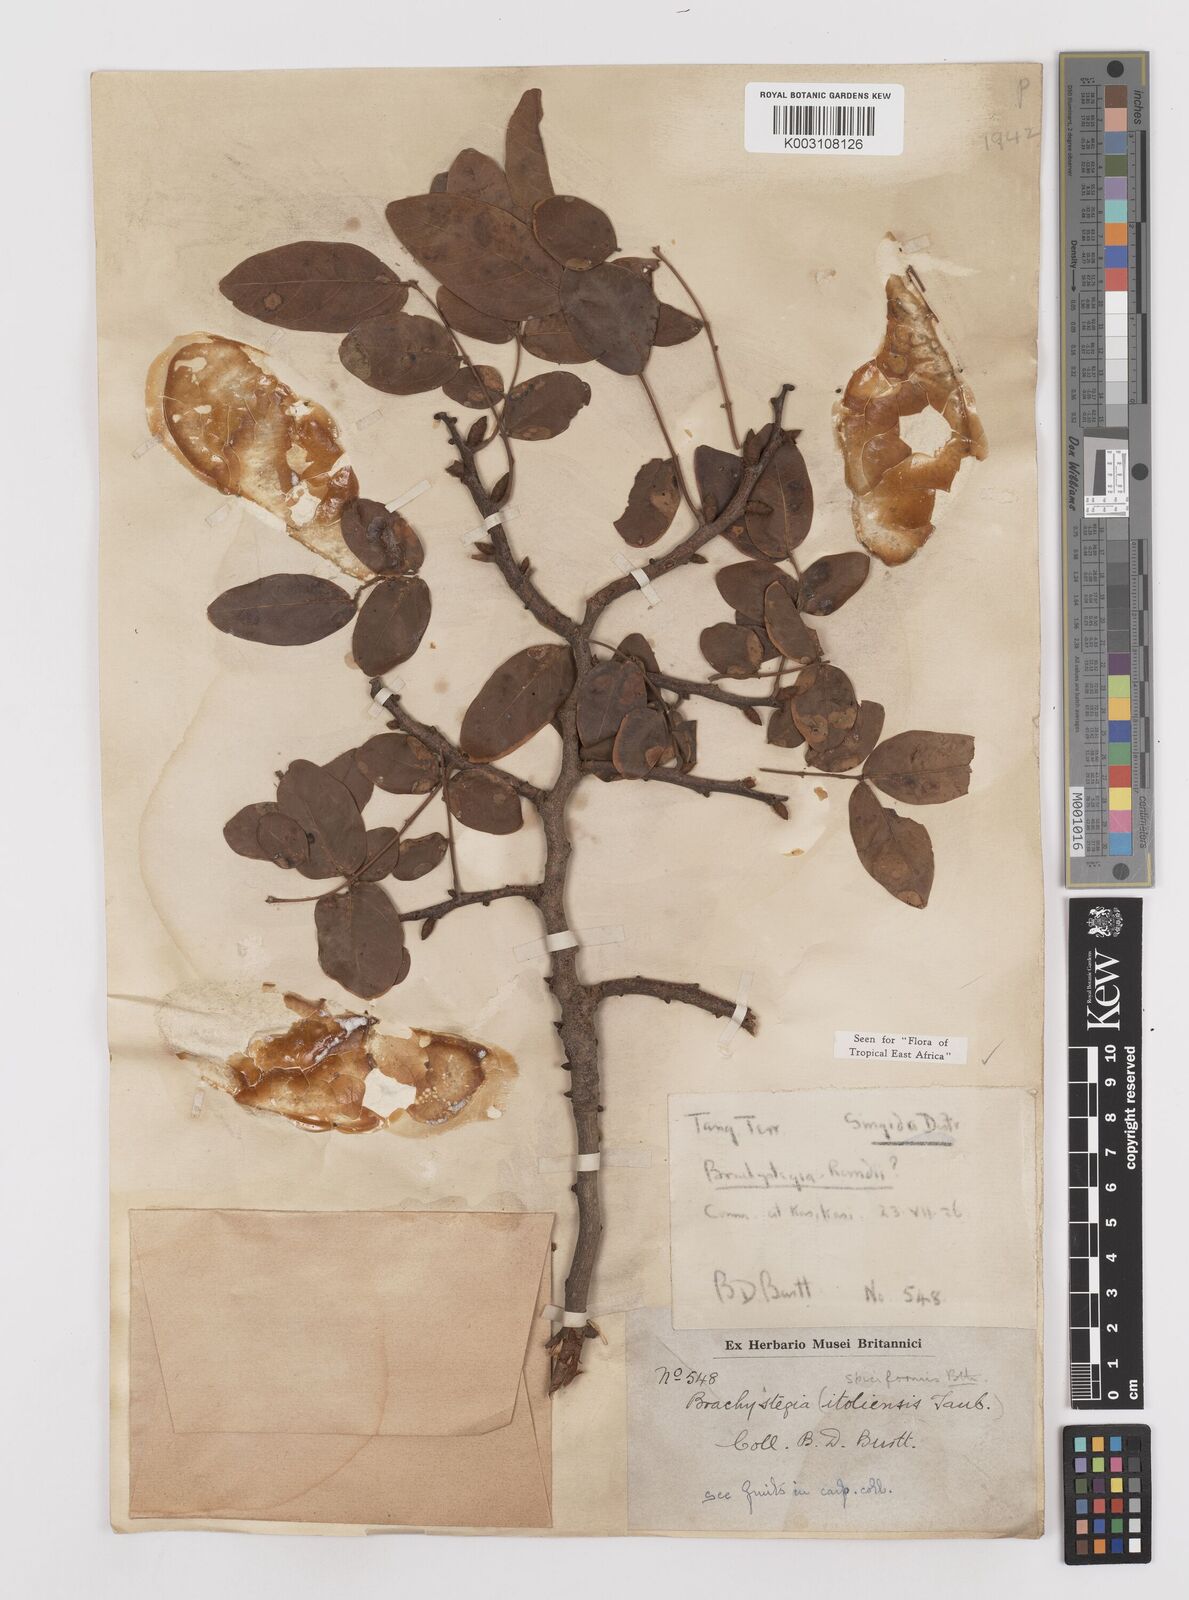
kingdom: Plantae
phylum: Tracheophyta
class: Magnoliopsida
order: Fabales
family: Fabaceae
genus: Brachystegia
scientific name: Brachystegia spiciformis
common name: Zebrawood
